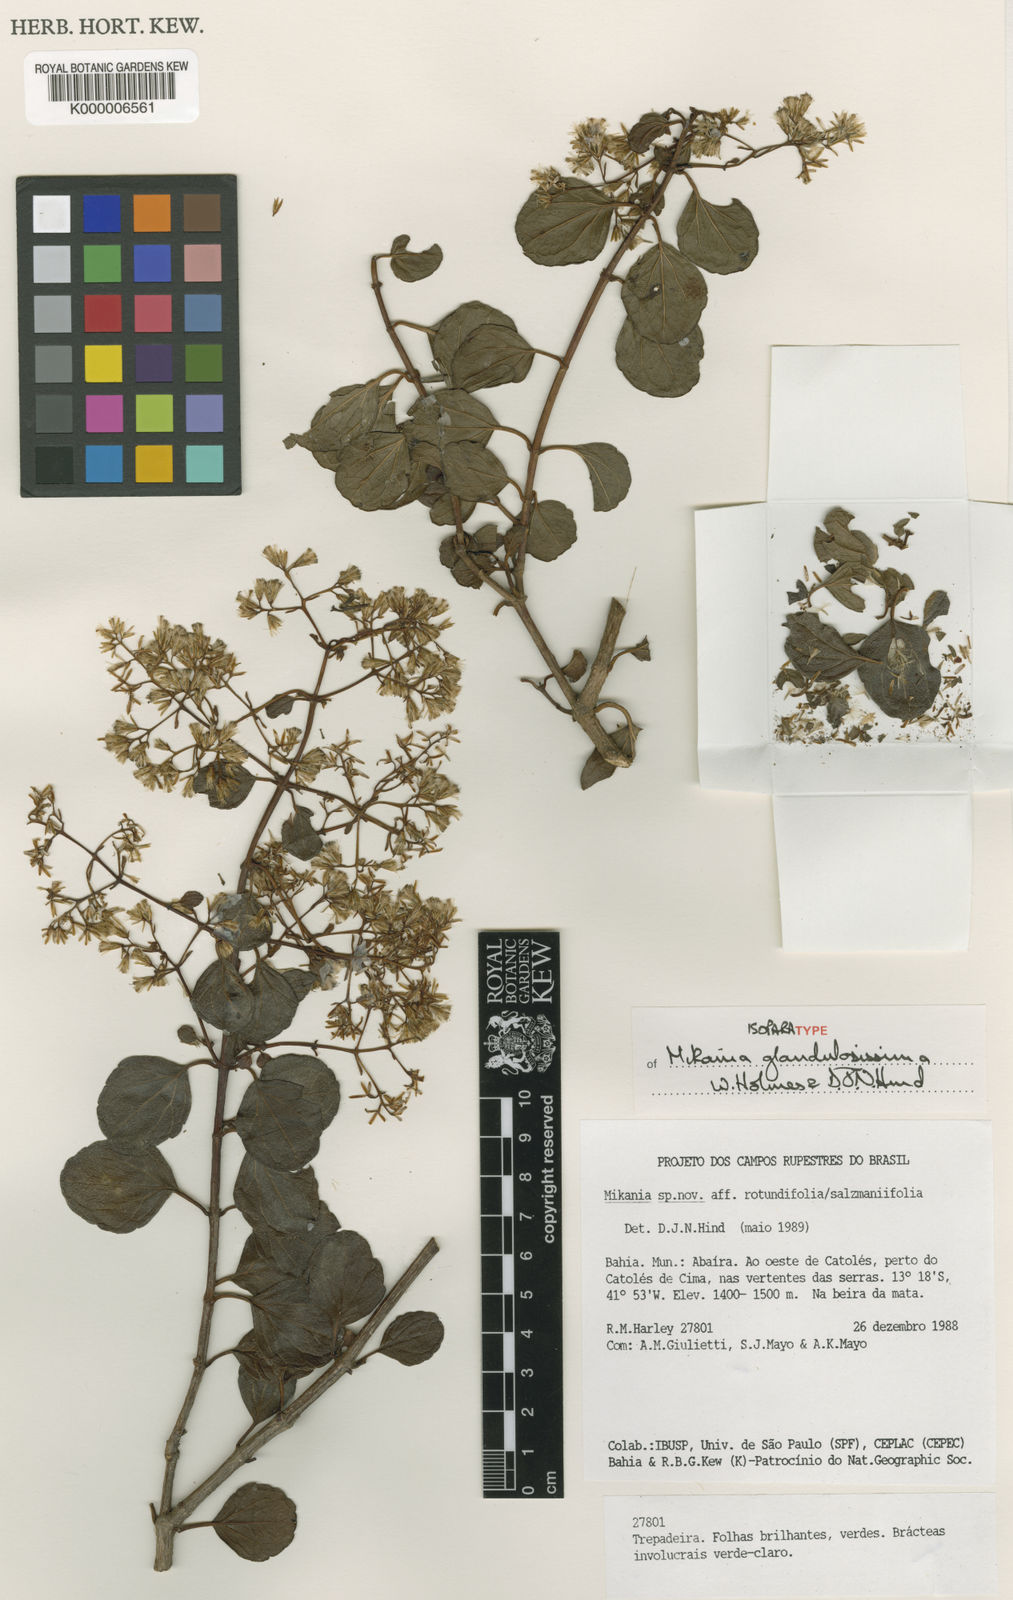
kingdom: Plantae
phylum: Tracheophyta
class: Magnoliopsida
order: Asterales
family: Asteraceae
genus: Mikania
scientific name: Mikania glandulosissima
